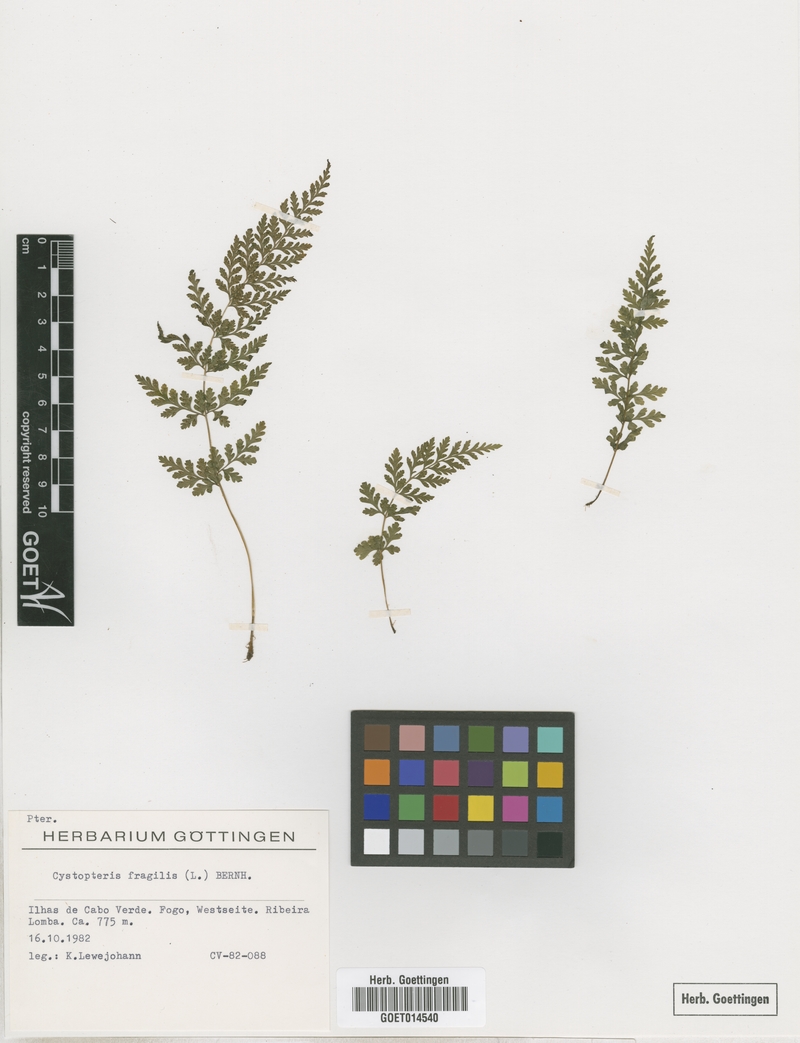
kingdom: Plantae
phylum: Tracheophyta
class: Polypodiopsida
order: Polypodiales
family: Cystopteridaceae
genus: Cystopteris
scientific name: Cystopteris fragilis
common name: Brittle bladder fern
